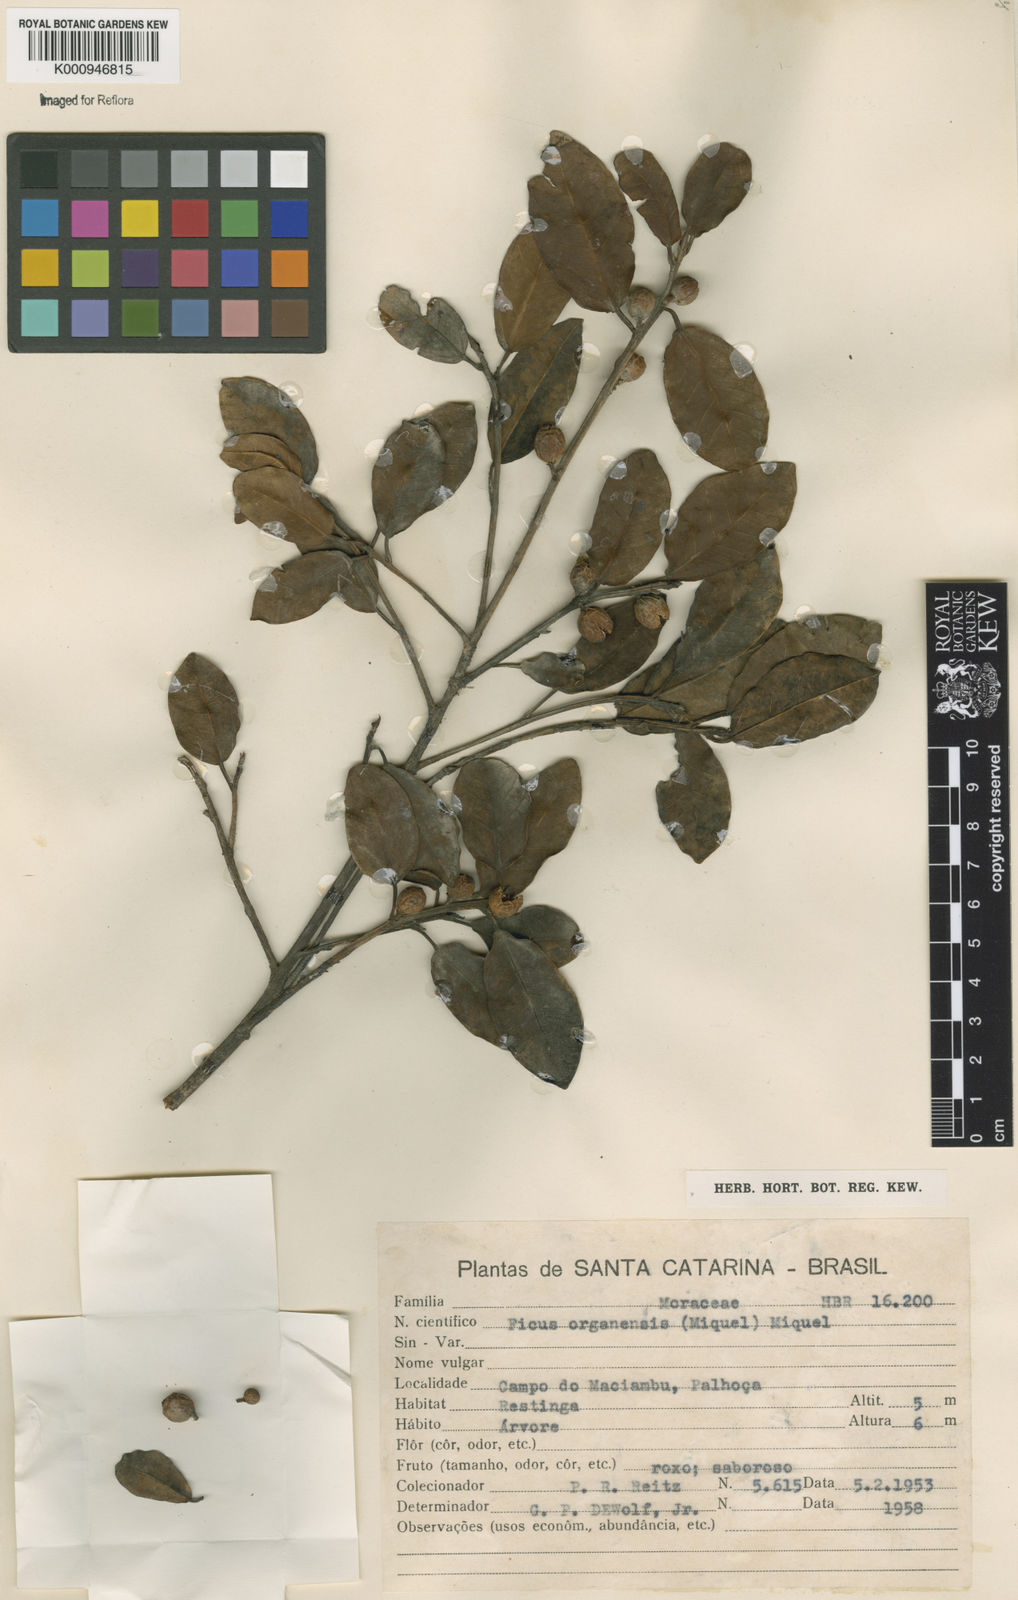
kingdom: Plantae
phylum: Tracheophyta
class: Magnoliopsida
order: Rosales
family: Moraceae
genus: Ficus
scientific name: Ficus organensis
